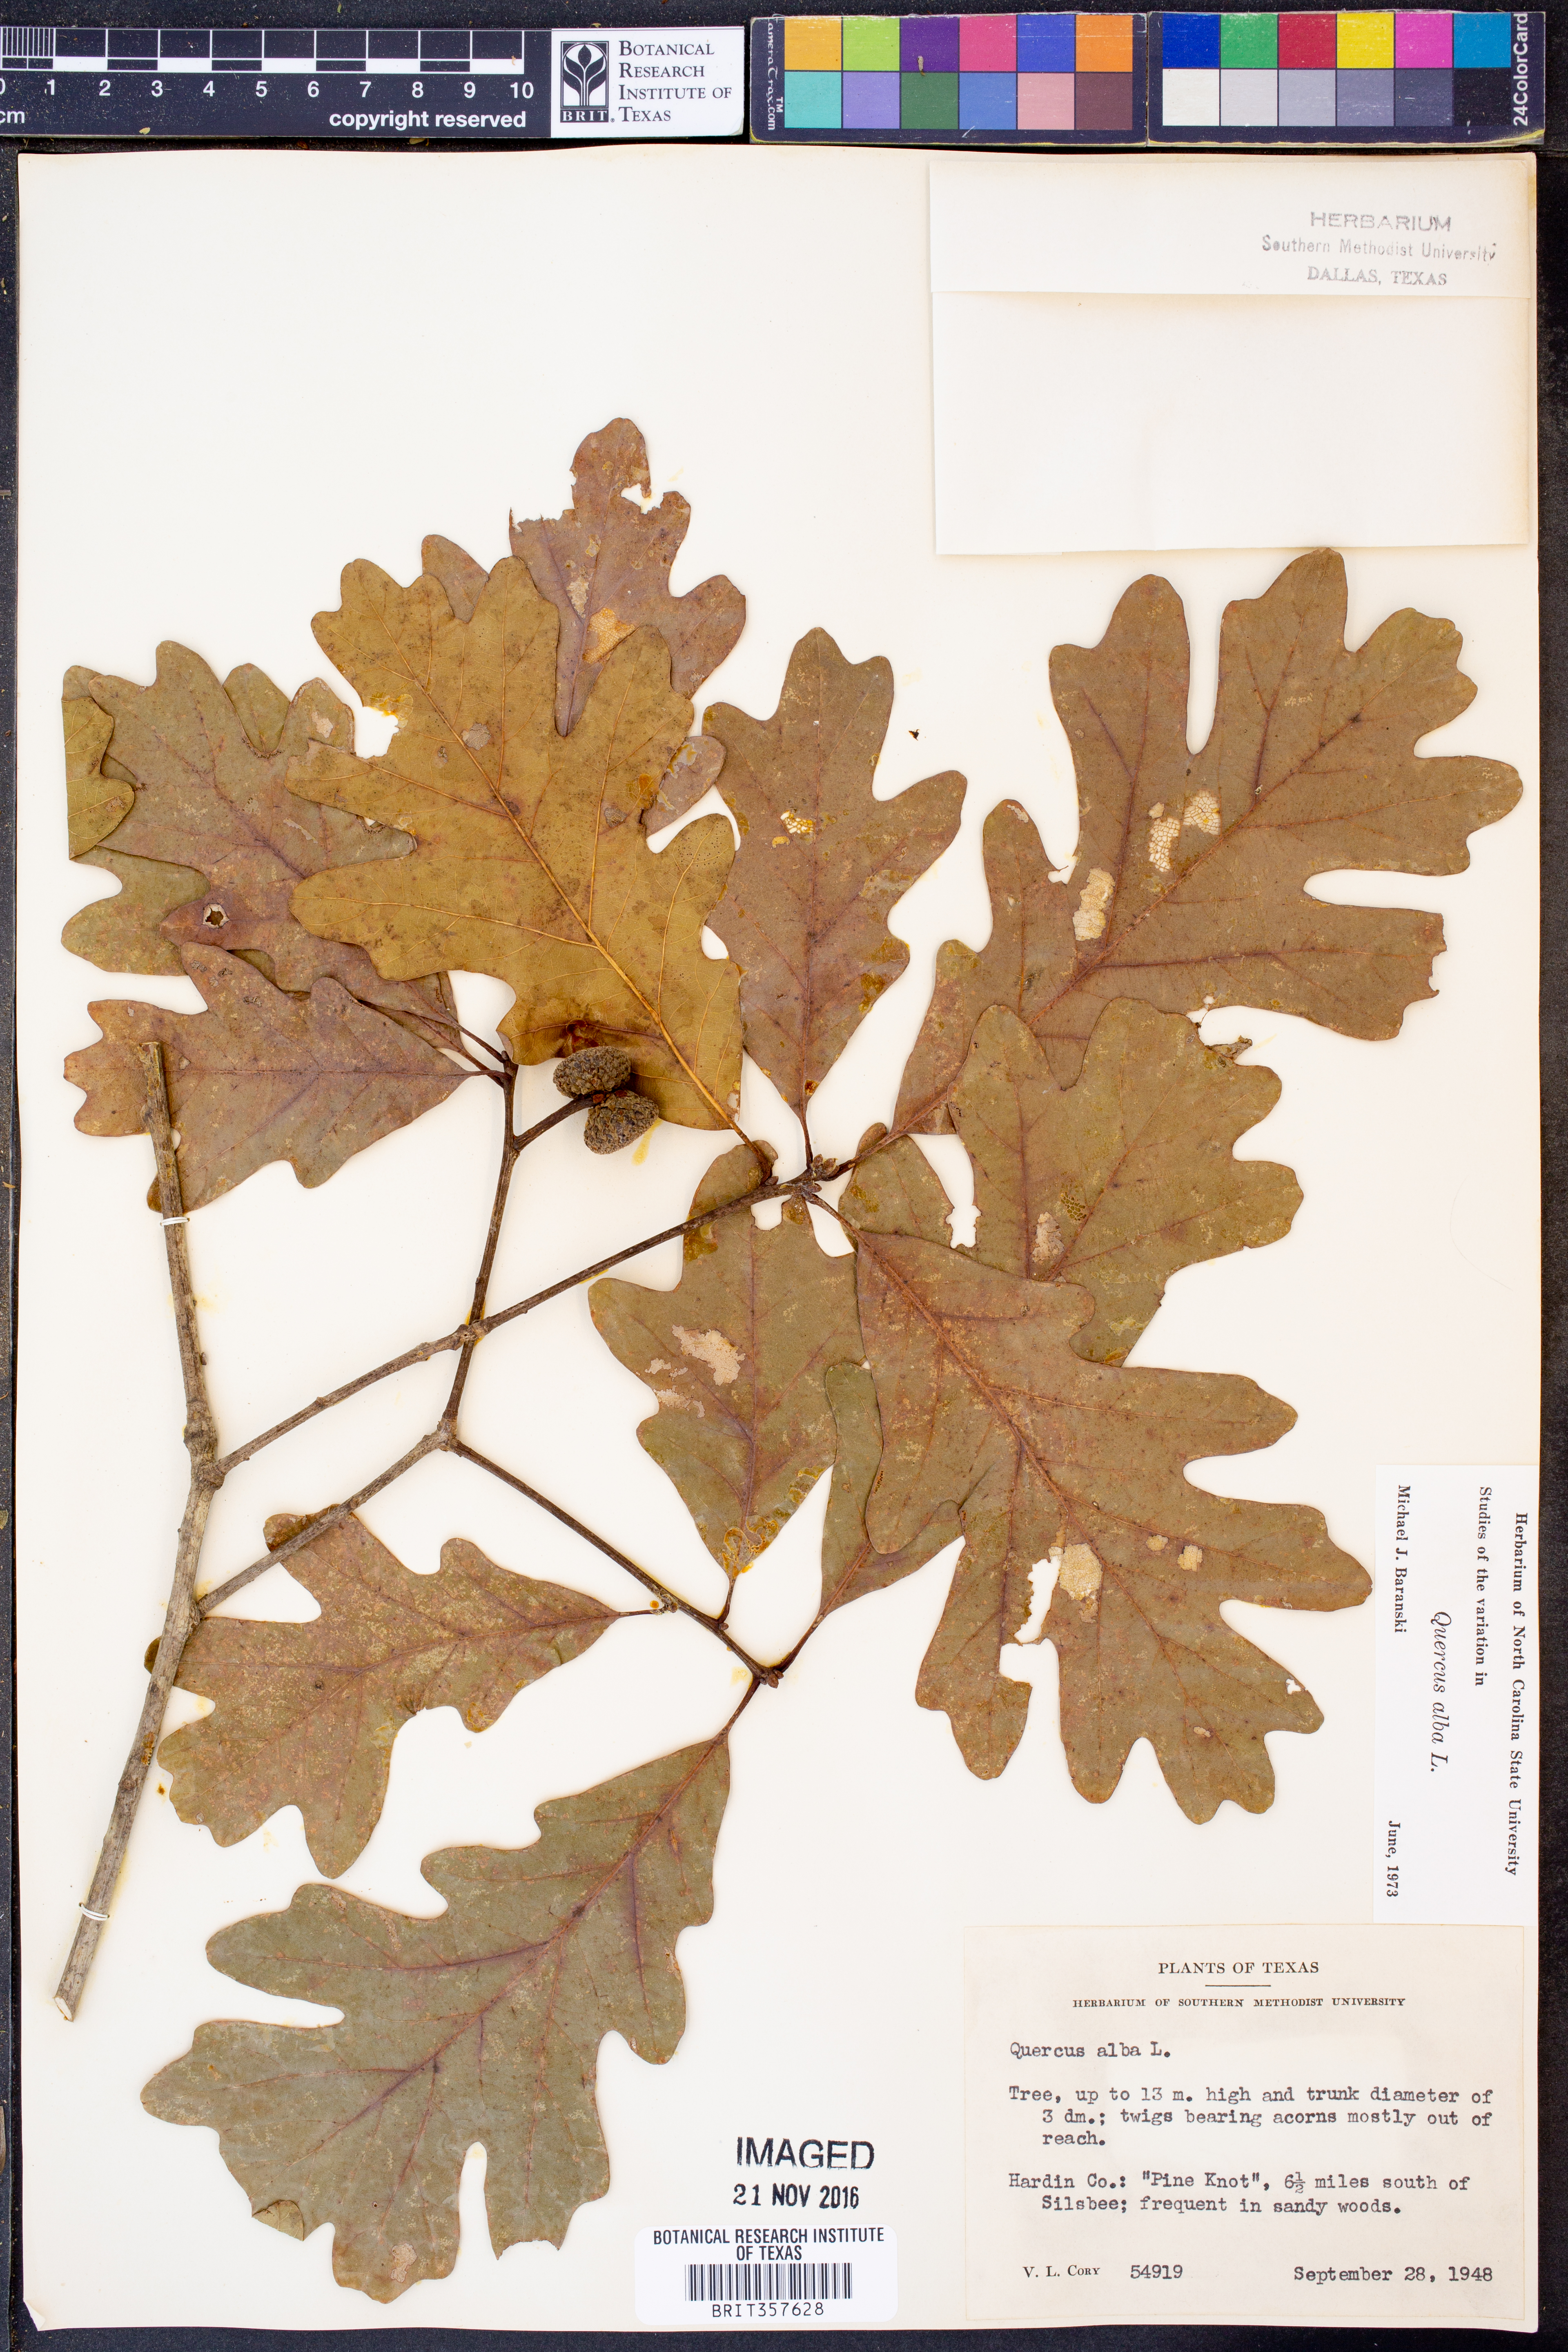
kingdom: Plantae
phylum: Tracheophyta
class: Magnoliopsida
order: Fagales
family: Fagaceae
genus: Quercus
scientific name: Quercus alba
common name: White oak
